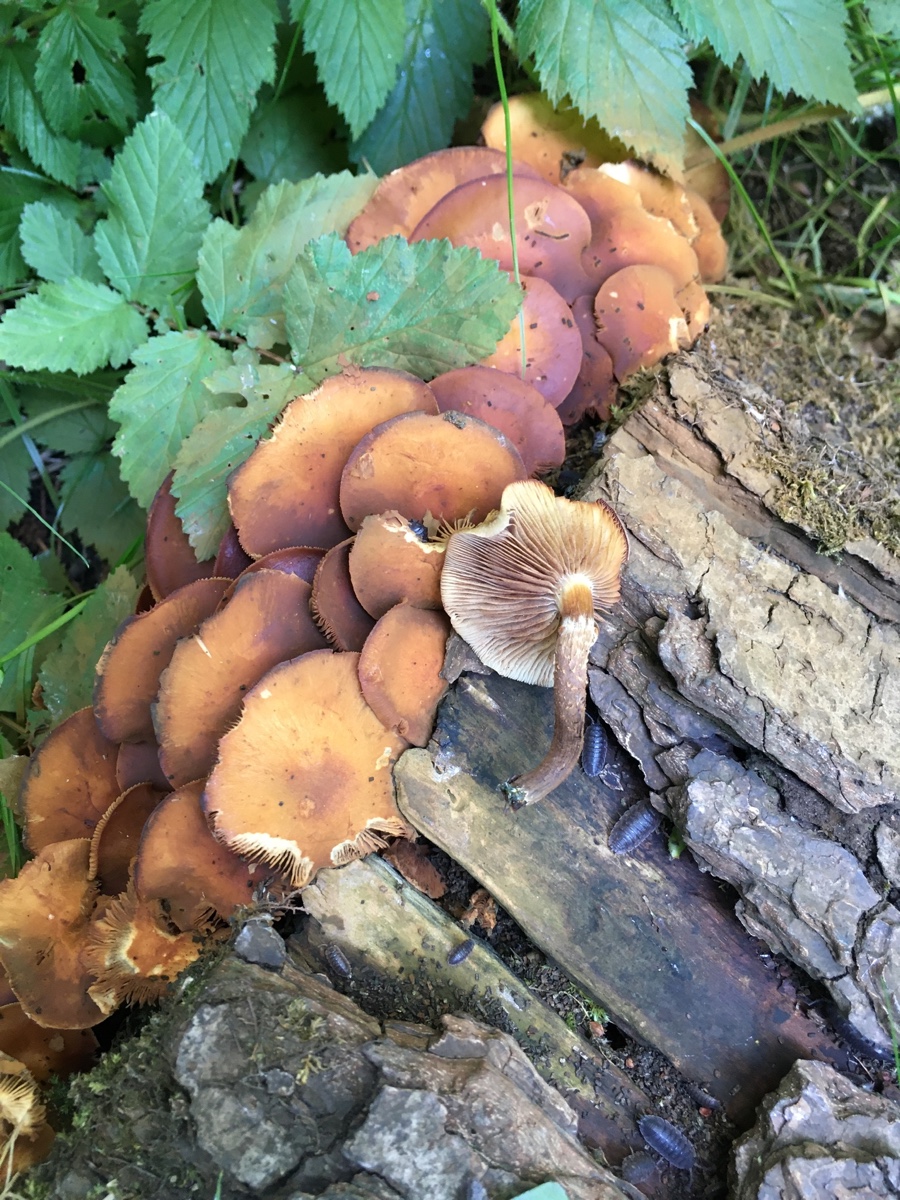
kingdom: Fungi
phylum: Basidiomycota
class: Agaricomycetes
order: Agaricales
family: Strophariaceae
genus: Kuehneromyces
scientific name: Kuehneromyces mutabilis
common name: foranderlig skælhat
